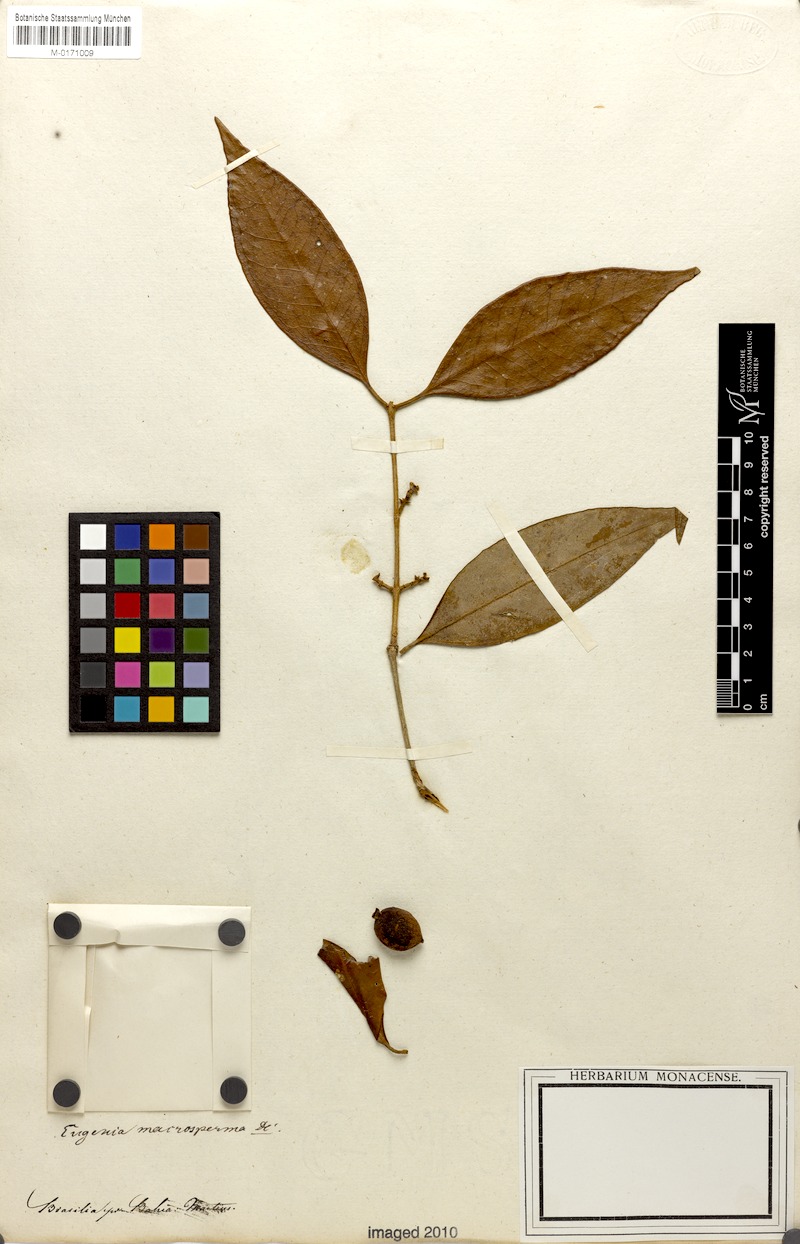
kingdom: Plantae
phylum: Tracheophyta
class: Magnoliopsida
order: Myrtales
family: Myrtaceae
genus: Eugenia
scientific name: Eugenia macrosperma
